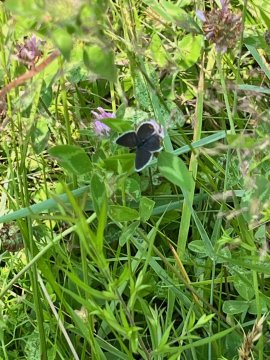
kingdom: Animalia
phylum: Arthropoda
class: Insecta
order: Lepidoptera
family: Lycaenidae
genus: Elkalyce
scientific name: Elkalyce comyntas
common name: Eastern Tailed-Blue
